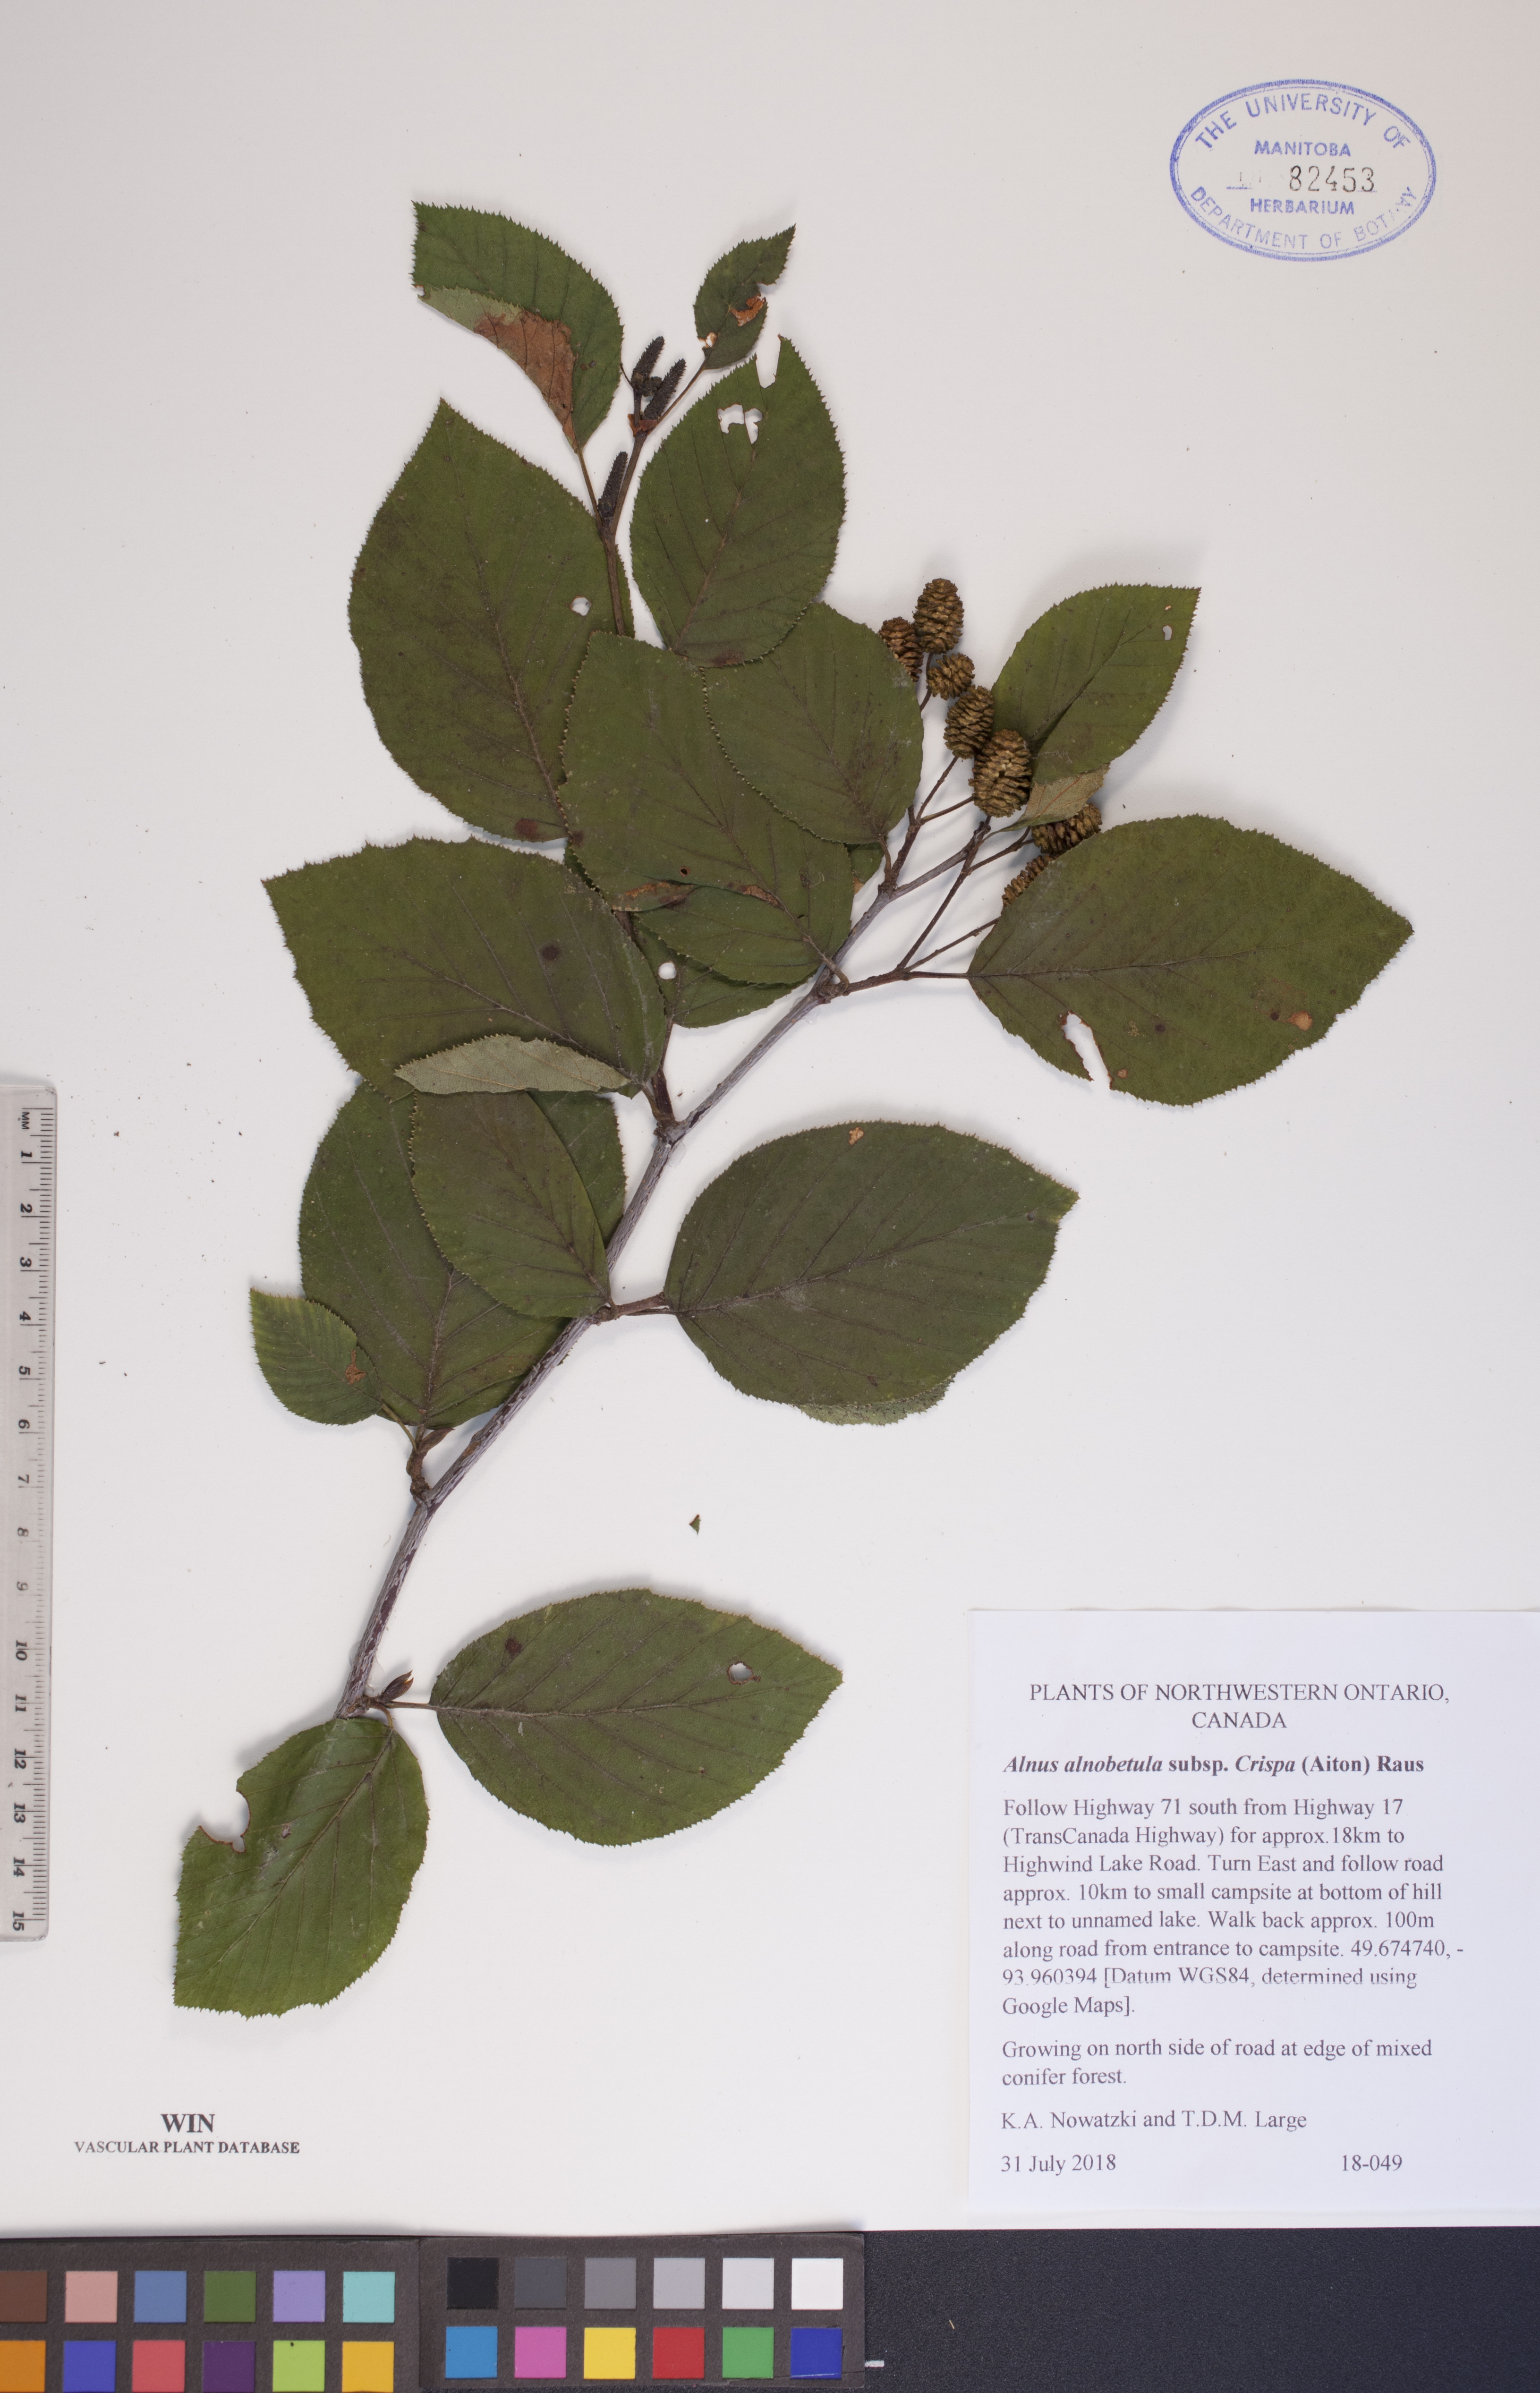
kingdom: Plantae
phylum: Tracheophyta
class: Magnoliopsida
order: Fagales
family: Betulaceae
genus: Alnus
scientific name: Alnus alnobetula
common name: Green alder
